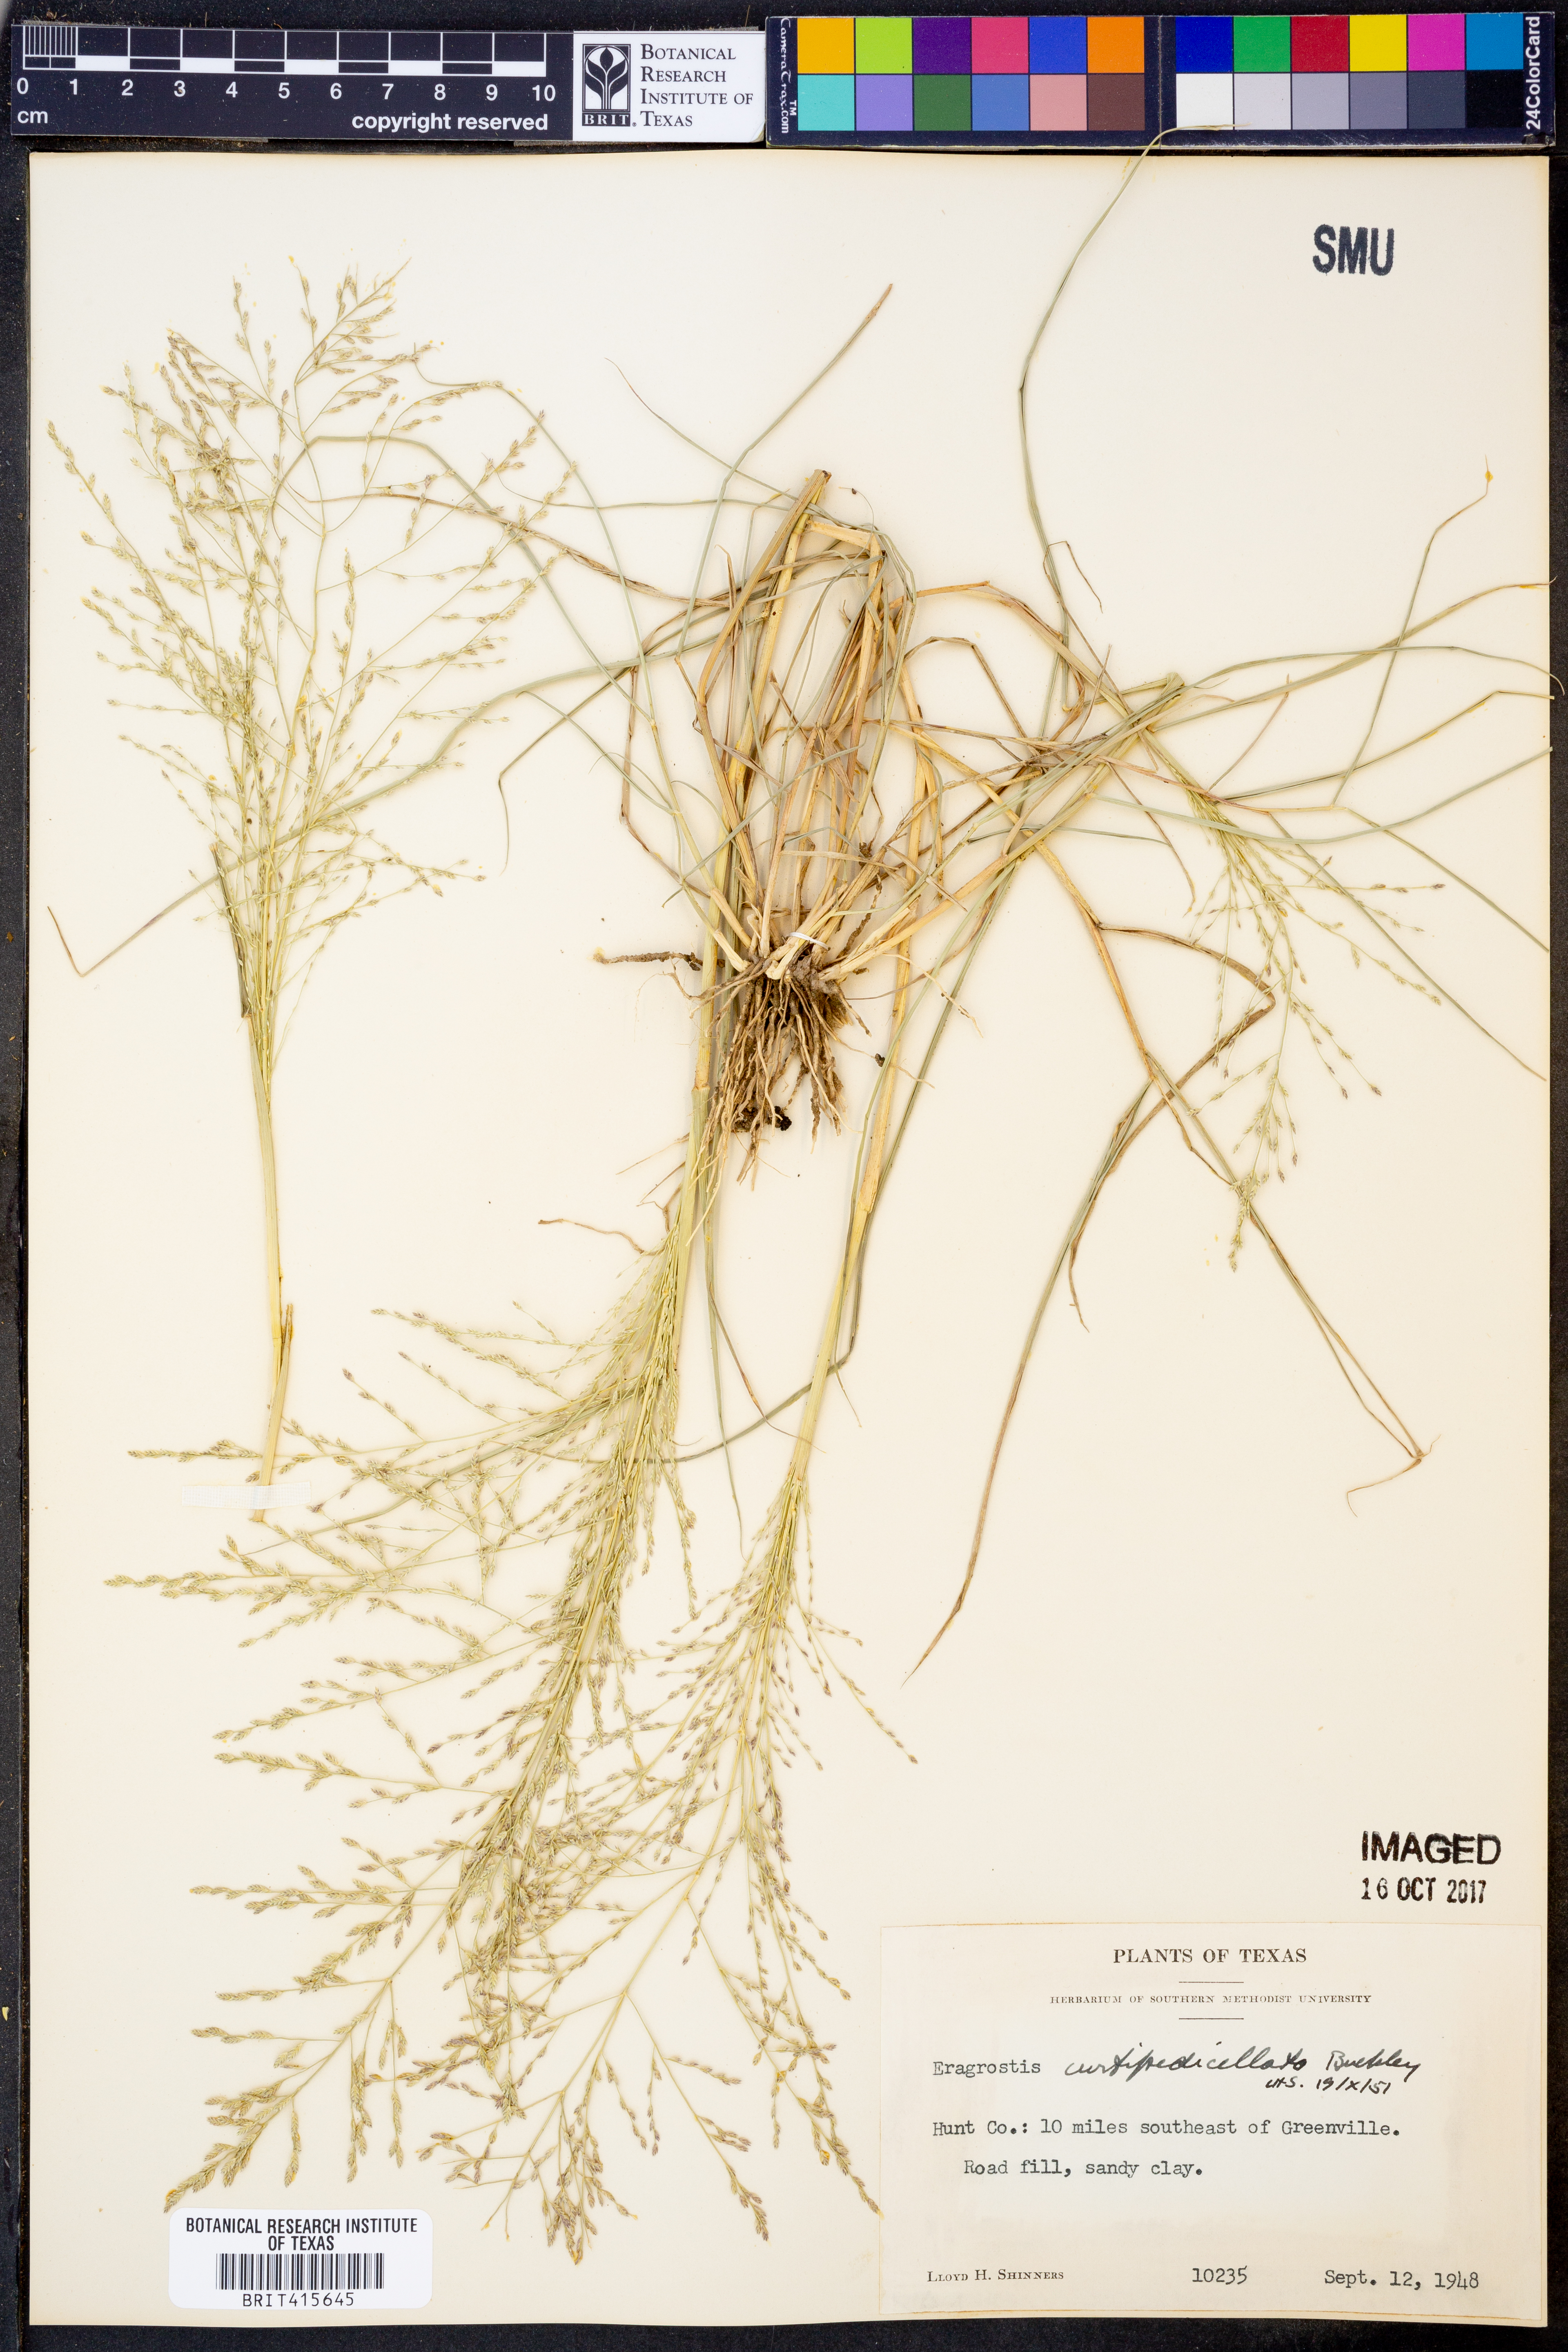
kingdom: Plantae
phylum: Tracheophyta
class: Liliopsida
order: Poales
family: Poaceae
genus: Eragrostis
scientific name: Eragrostis curtipedicellata
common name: Gummy love grass
